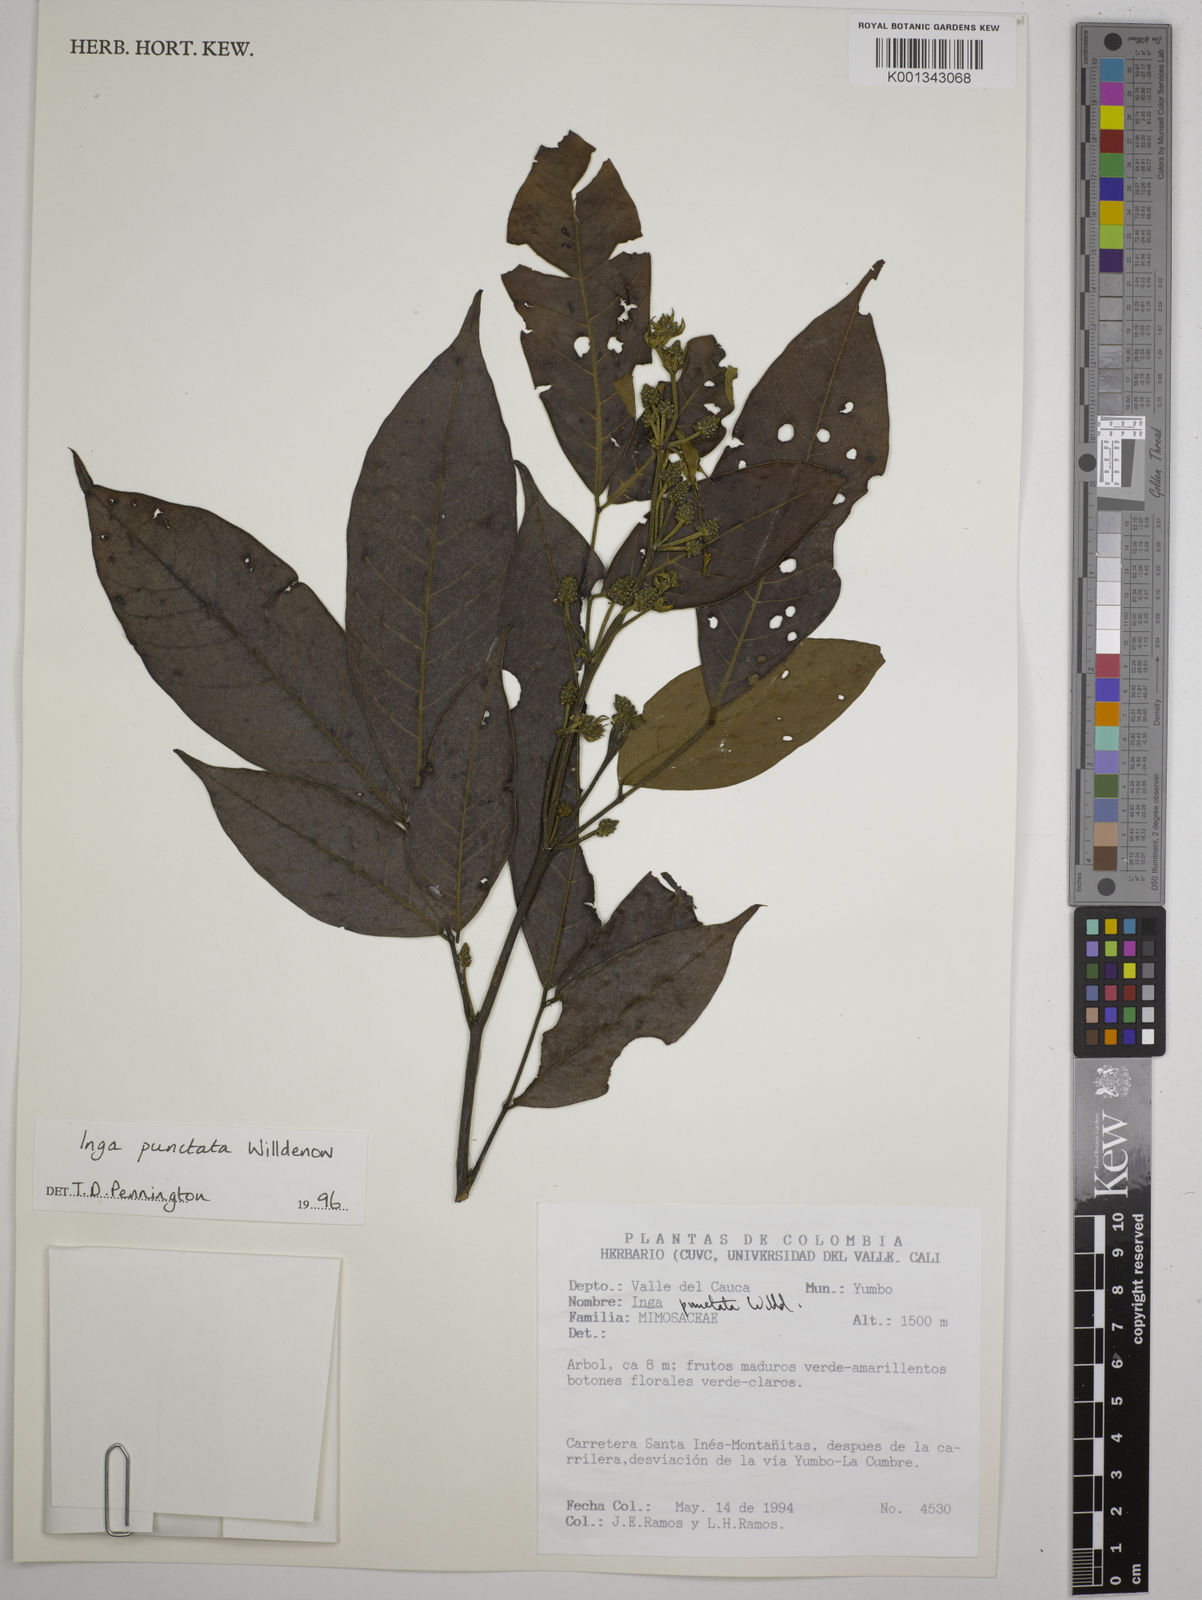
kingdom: Plantae
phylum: Tracheophyta
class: Magnoliopsida
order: Fabales
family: Fabaceae
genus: Inga
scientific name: Inga punctata
